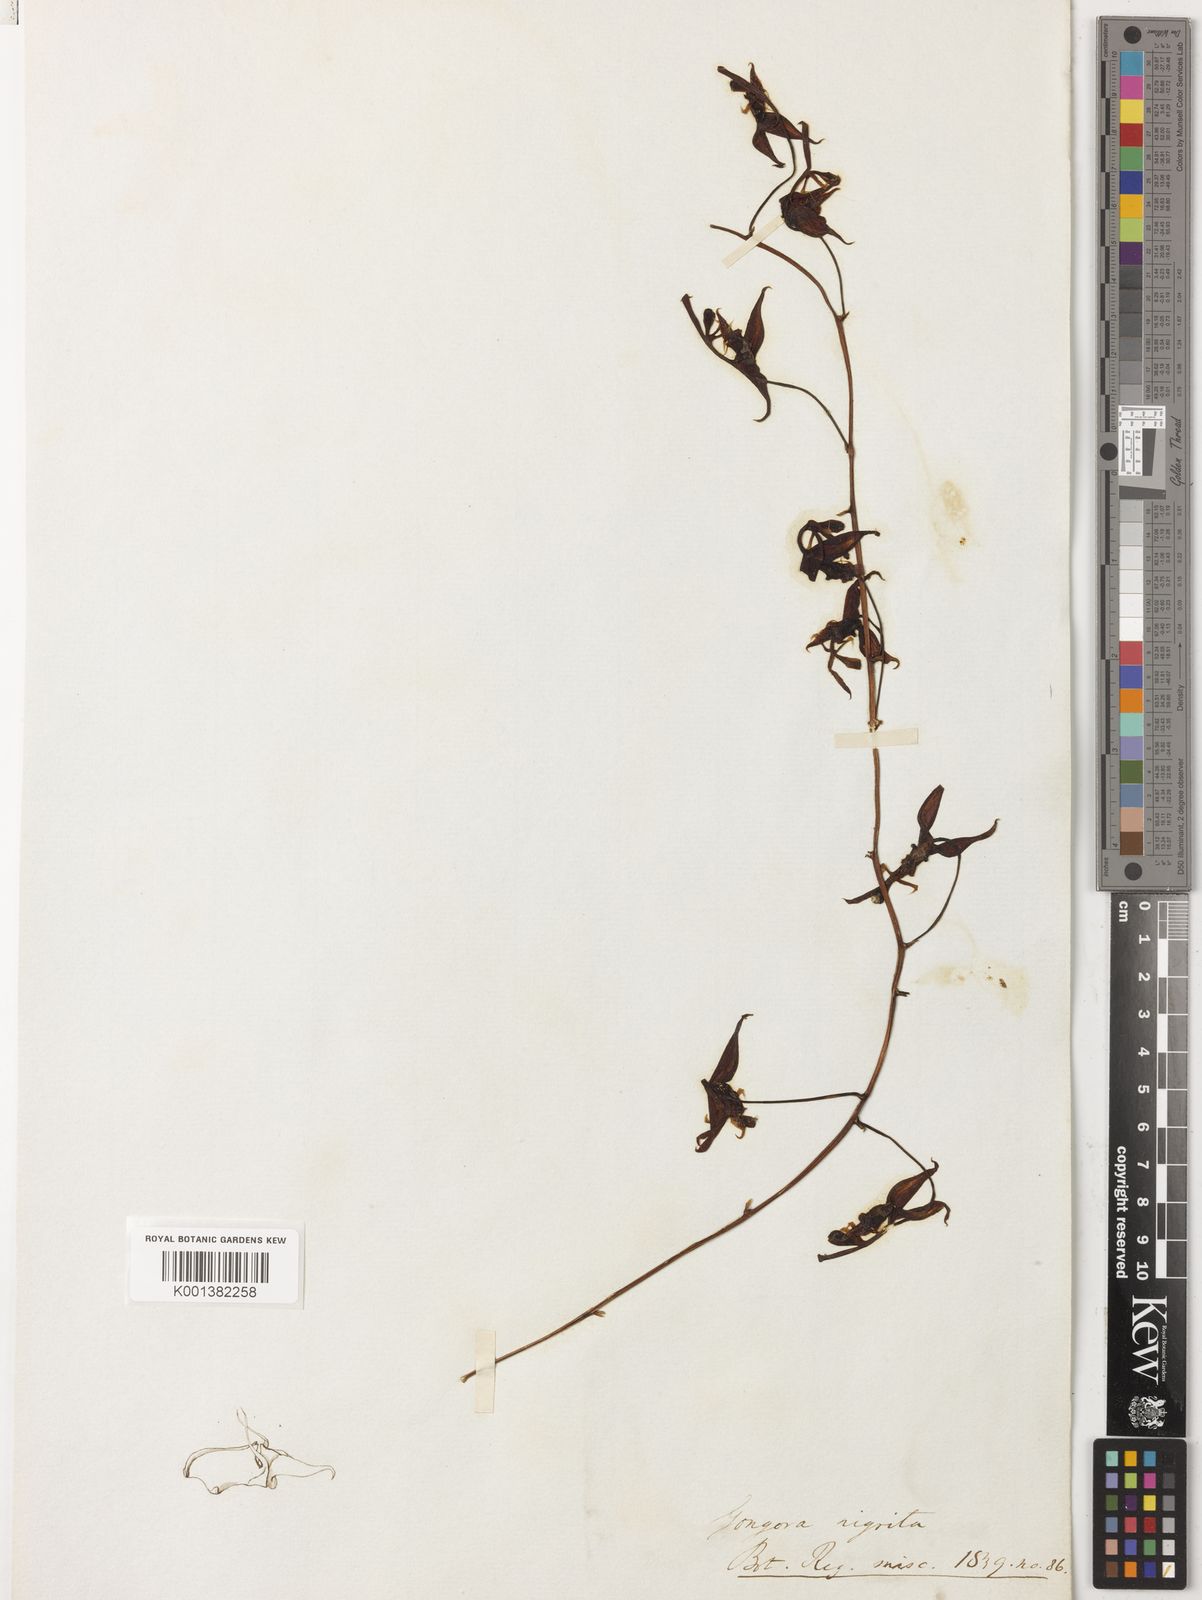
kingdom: Plantae
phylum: Tracheophyta
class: Liliopsida
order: Asparagales
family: Orchidaceae
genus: Gongora
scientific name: Gongora nigrita
